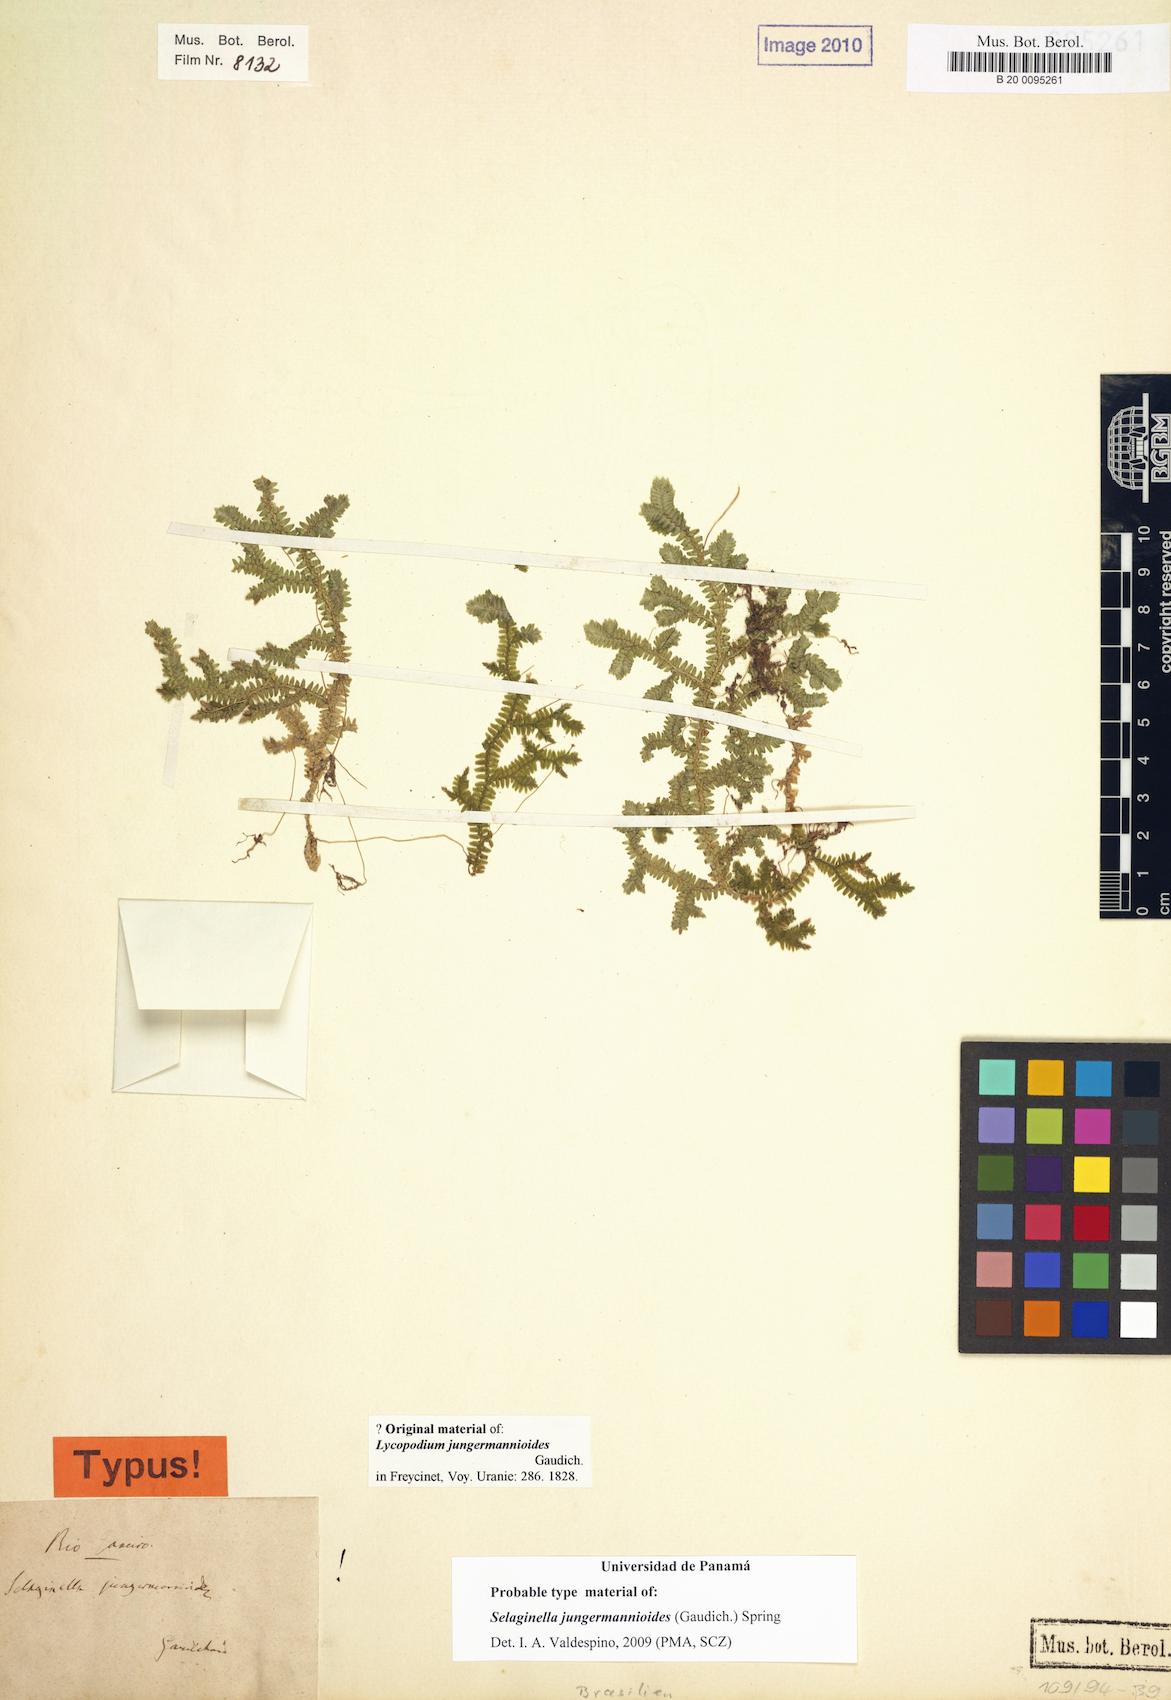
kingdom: Plantae
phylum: Tracheophyta
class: Lycopodiopsida
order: Selaginellales
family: Selaginellaceae
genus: Selaginella
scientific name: Selaginella jungermannioides
